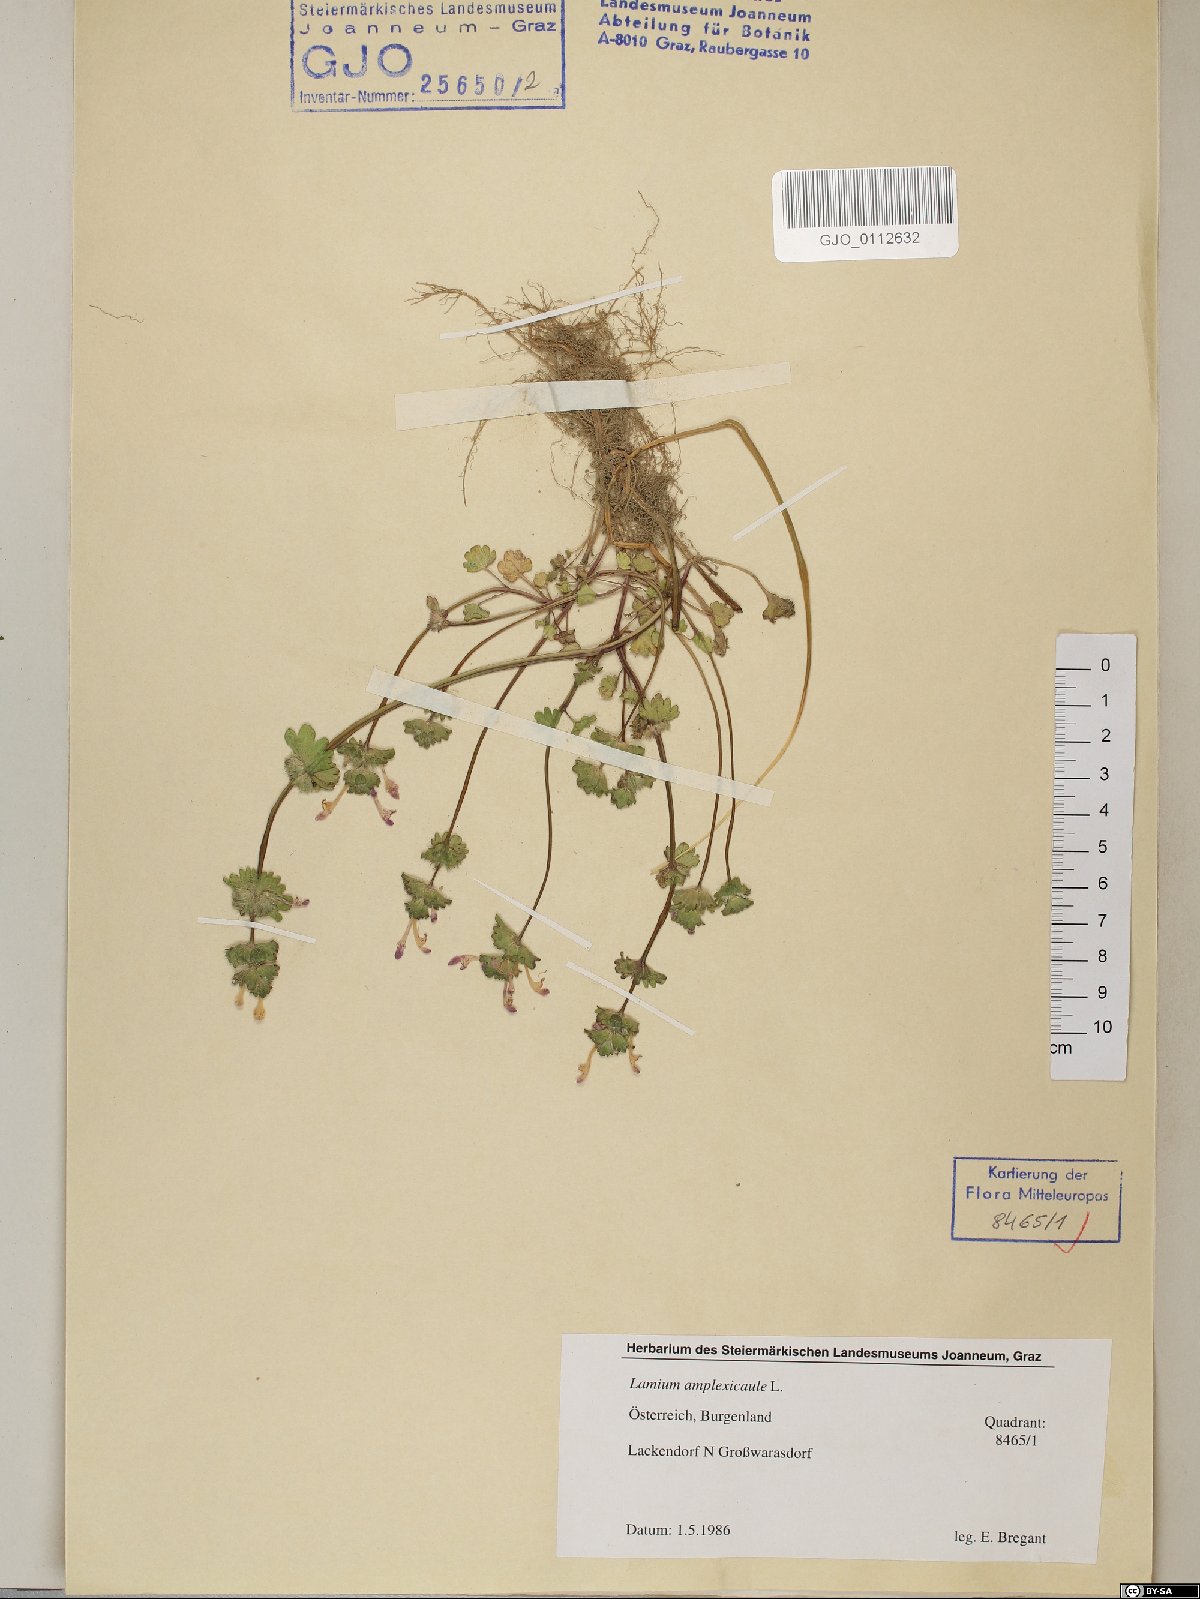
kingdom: Plantae
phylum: Tracheophyta
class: Magnoliopsida
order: Lamiales
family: Lamiaceae
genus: Lamium
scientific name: Lamium amplexicaule
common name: Henbit dead-nettle
